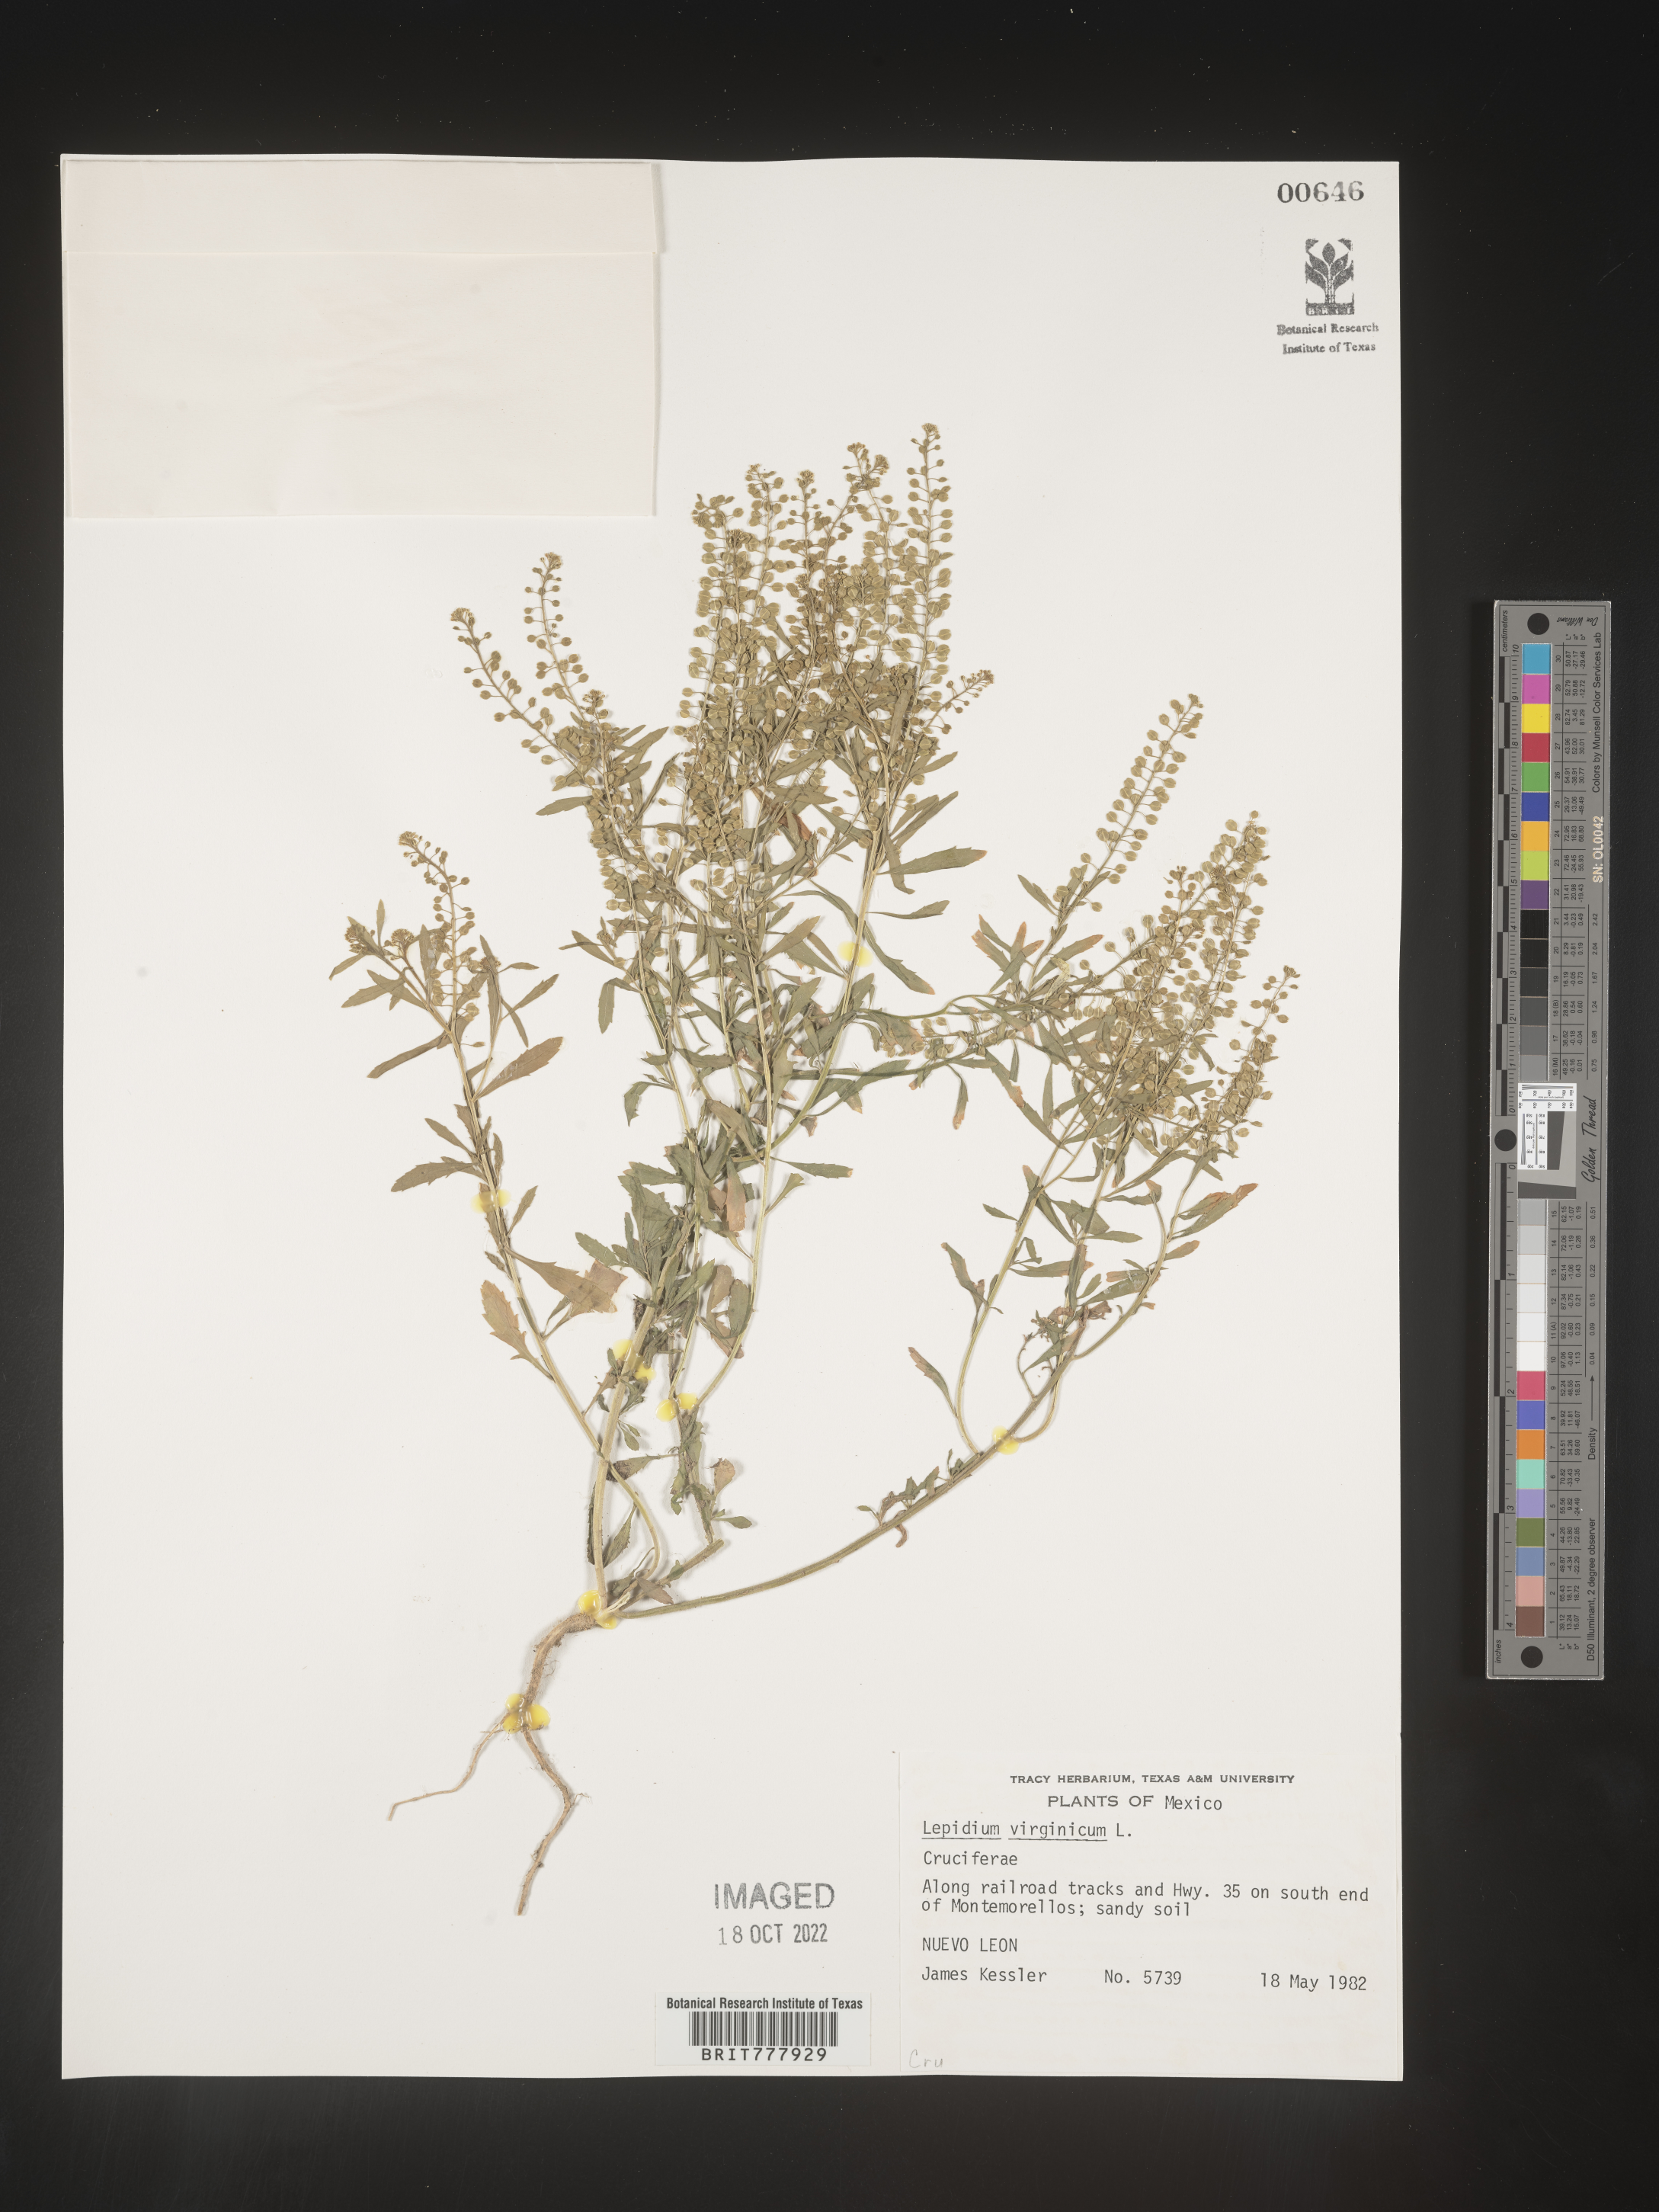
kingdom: Plantae
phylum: Tracheophyta
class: Magnoliopsida
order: Brassicales
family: Brassicaceae
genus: Lepidium
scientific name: Lepidium
